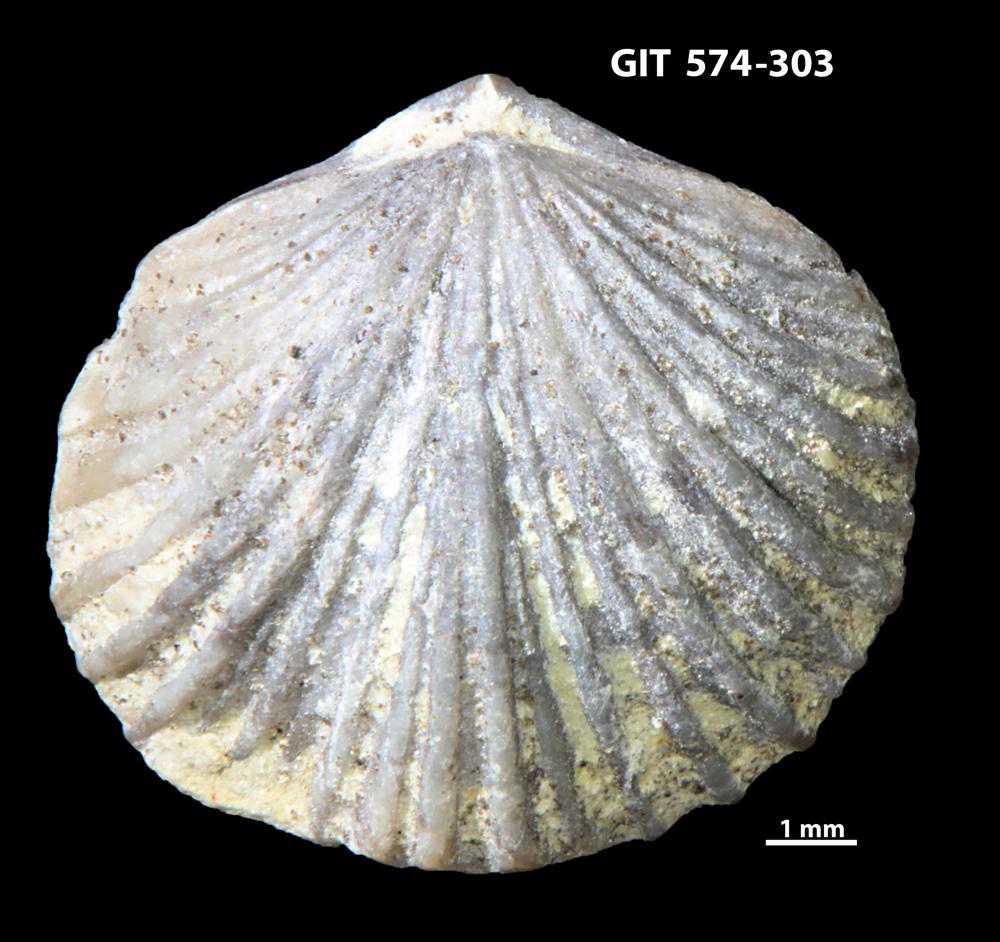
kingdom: Animalia
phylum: Brachiopoda
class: Rhynchonellata
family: Atrypinidae
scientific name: Atrypinidae
